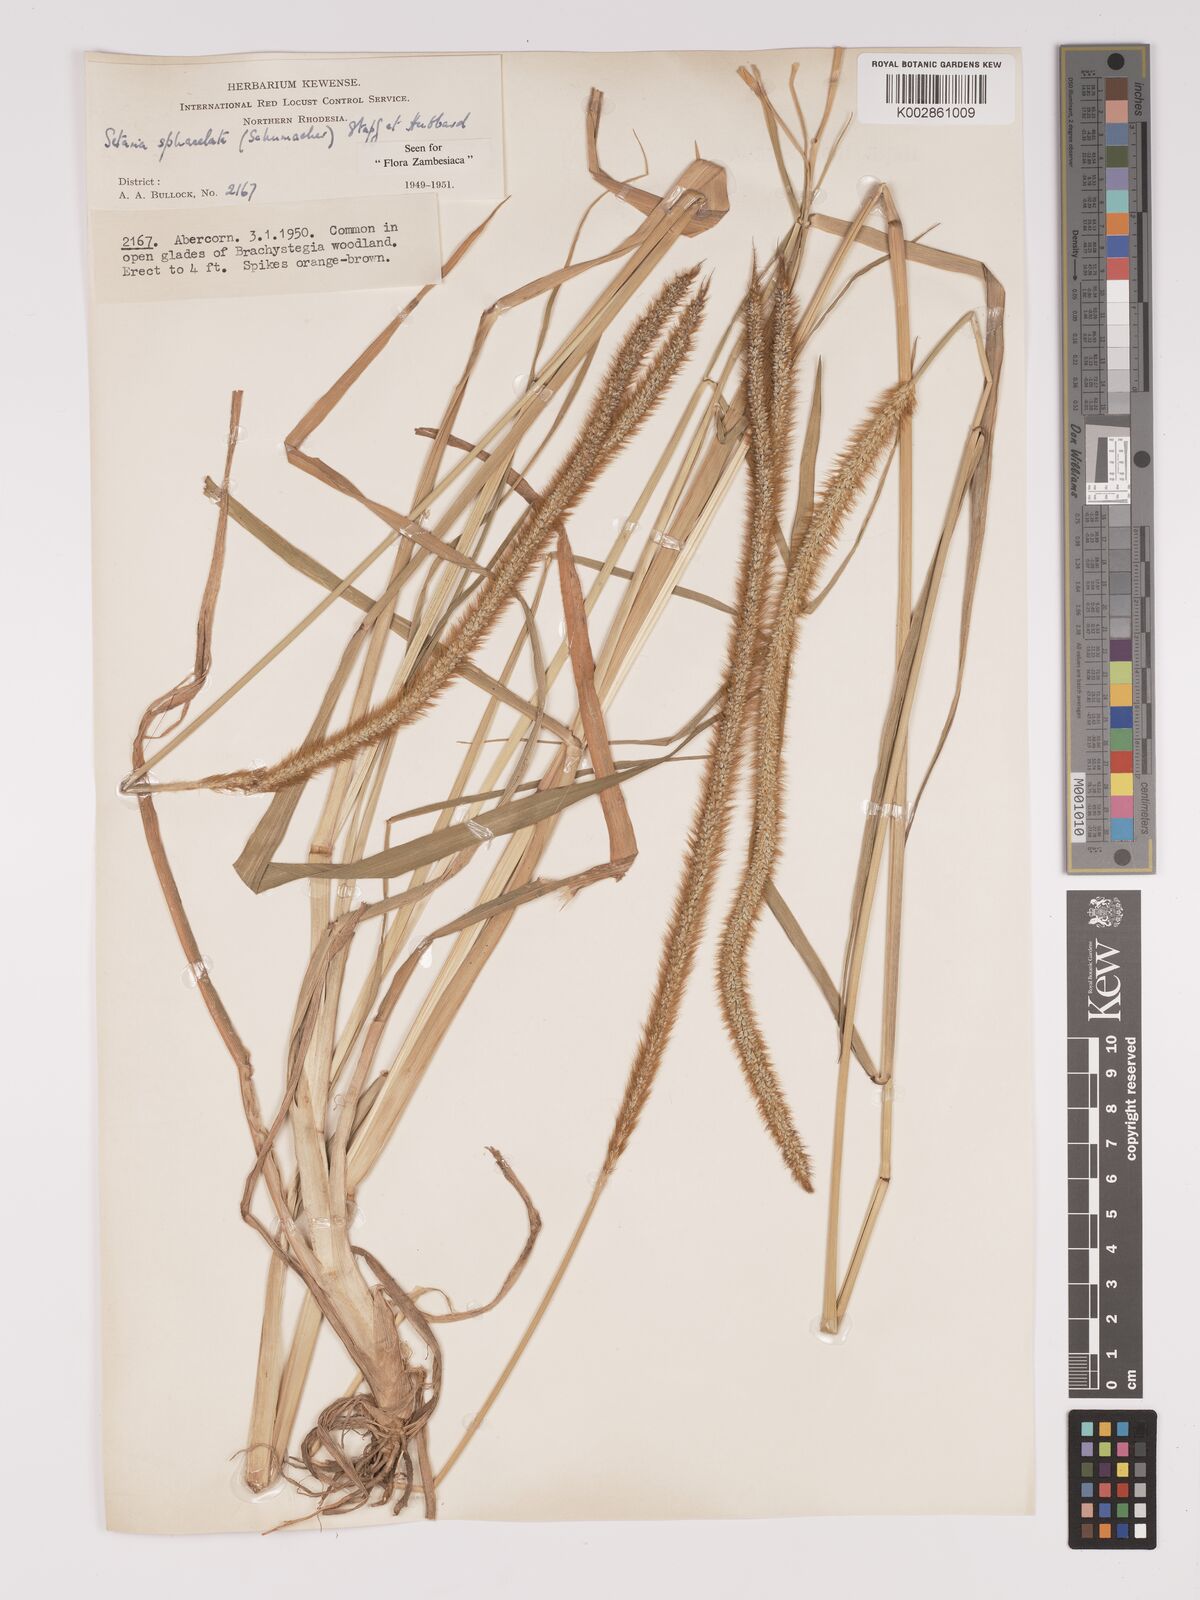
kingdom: Plantae
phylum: Tracheophyta
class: Liliopsida
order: Poales
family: Poaceae
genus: Setaria
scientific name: Setaria sphacelata
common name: African bristlegrass
